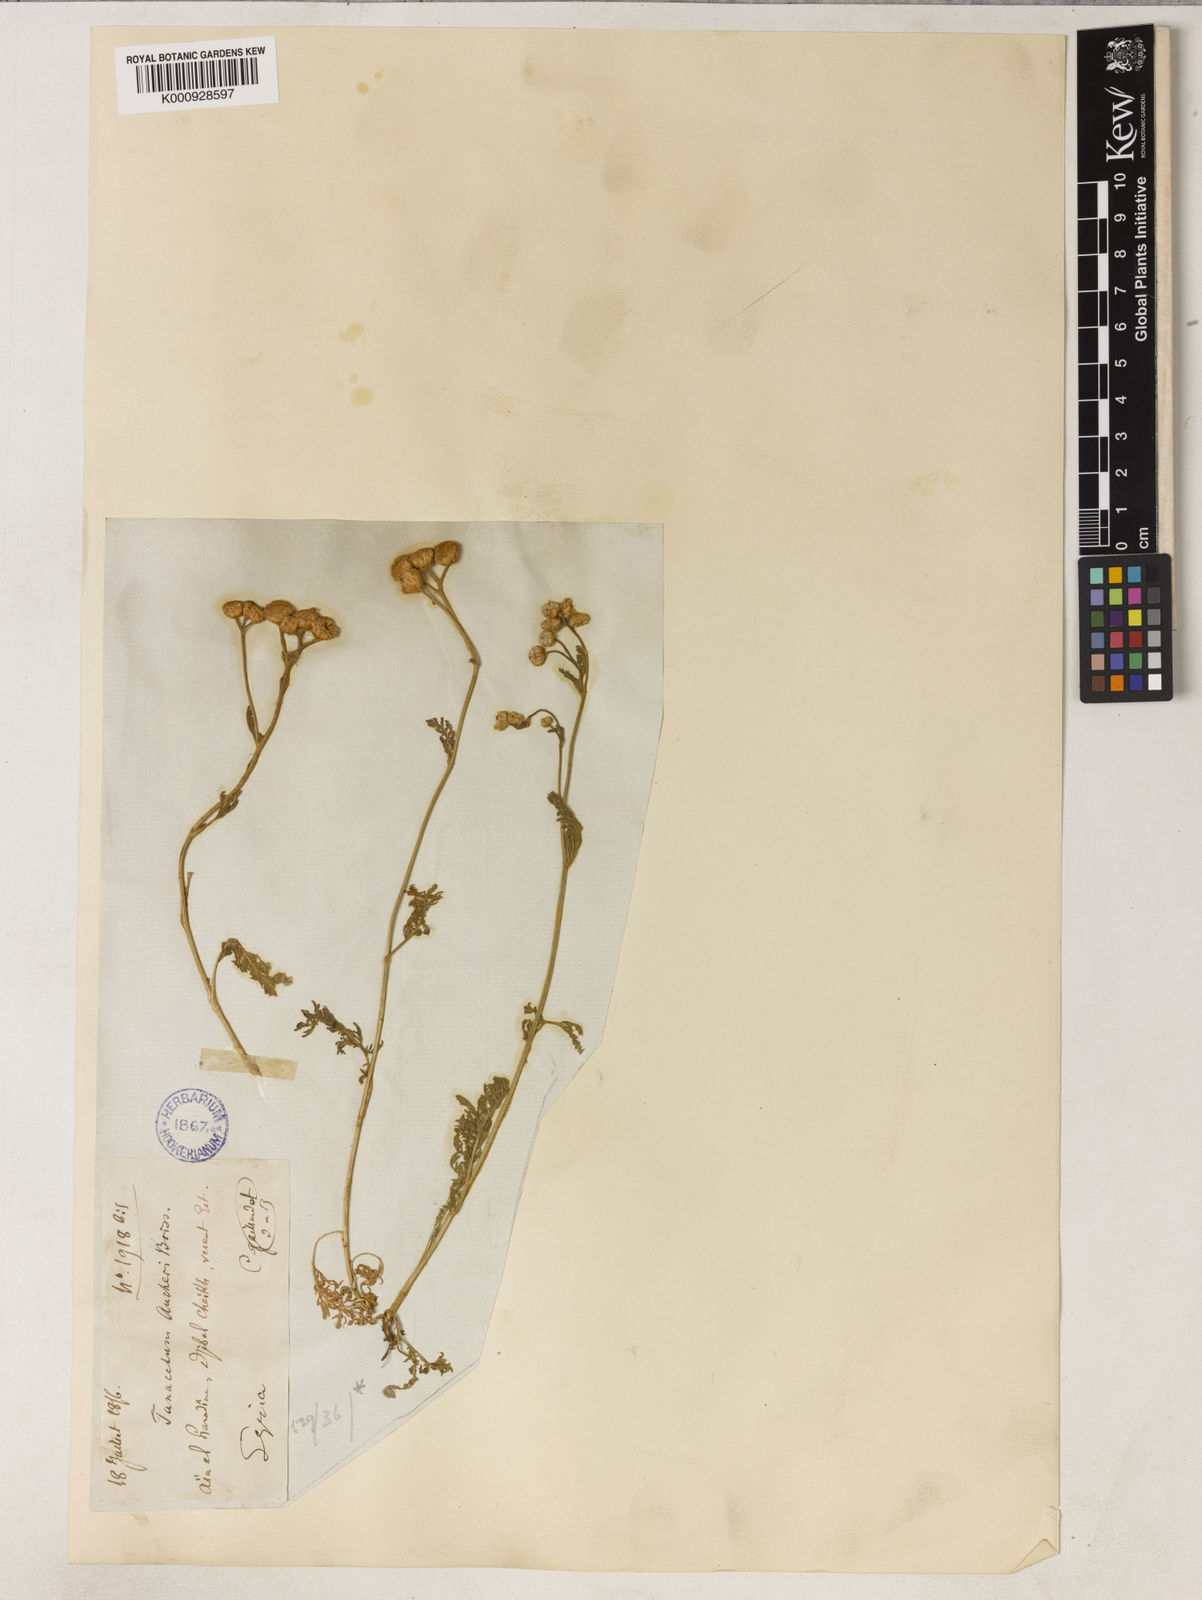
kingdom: Plantae
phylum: Tracheophyta
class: Magnoliopsida
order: Asterales
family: Asteraceae
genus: Tanacetum
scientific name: Tanacetum aucheri
